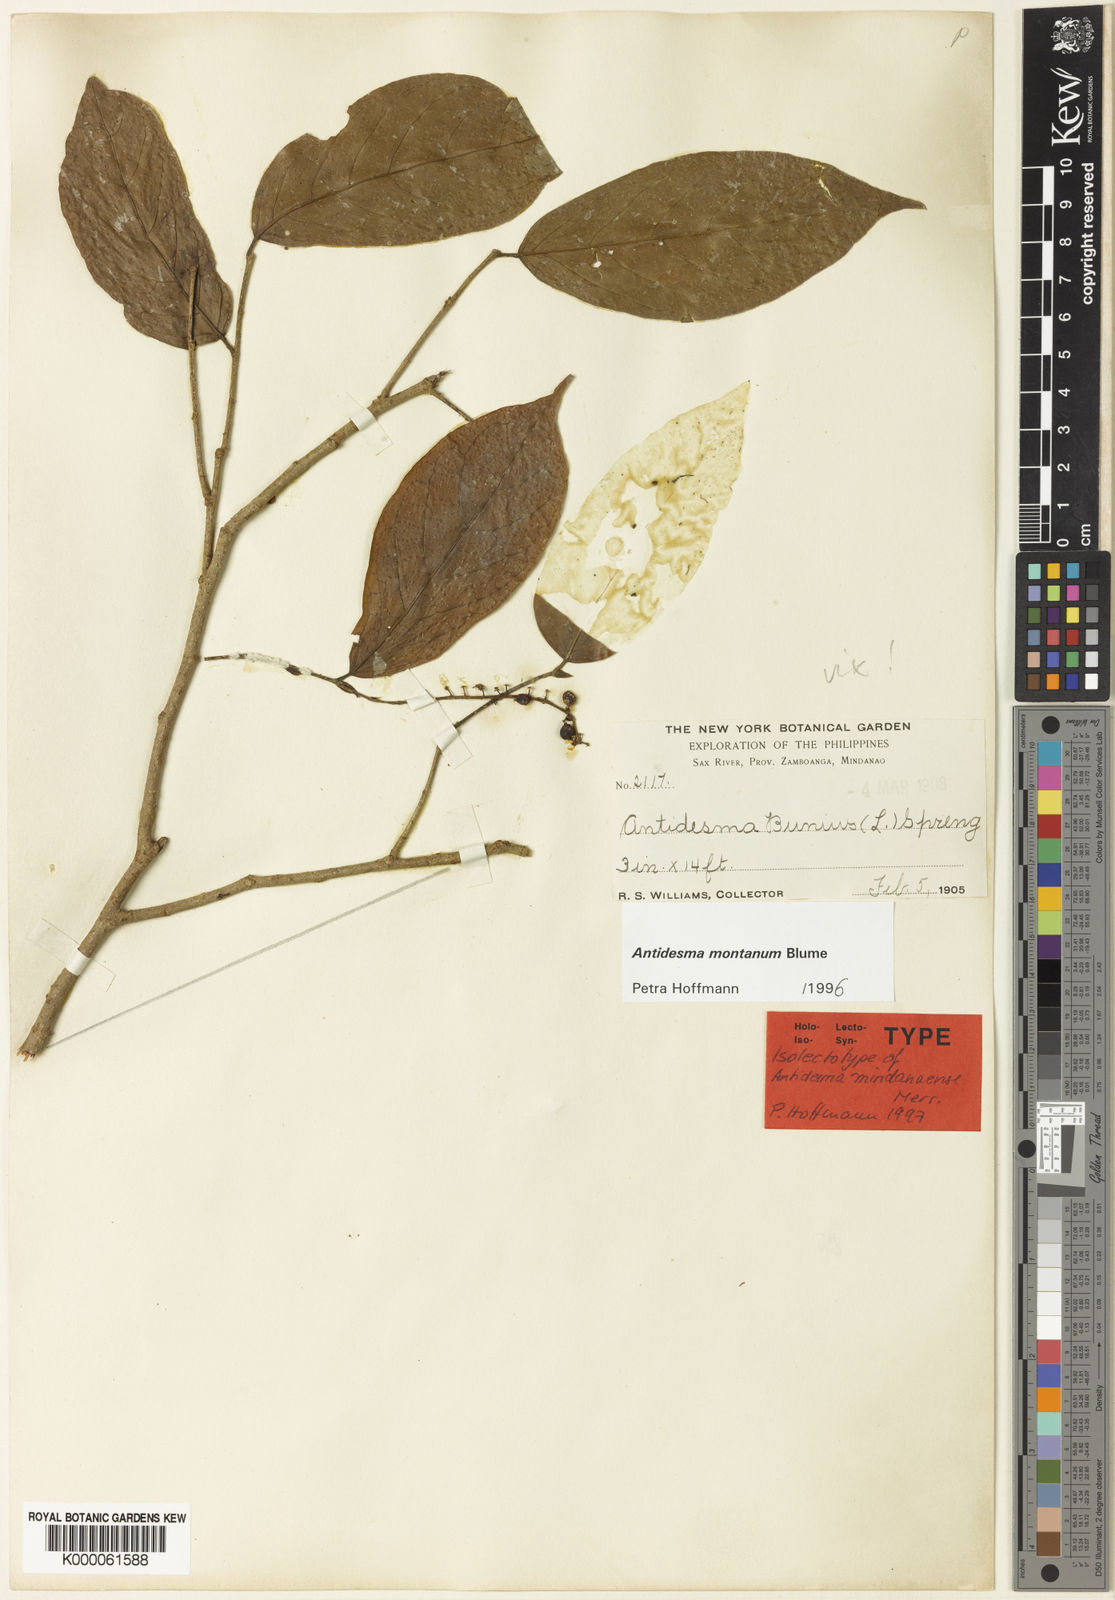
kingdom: Plantae
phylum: Tracheophyta
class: Magnoliopsida
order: Malpighiales
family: Phyllanthaceae
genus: Antidesma
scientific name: Antidesma montanum
